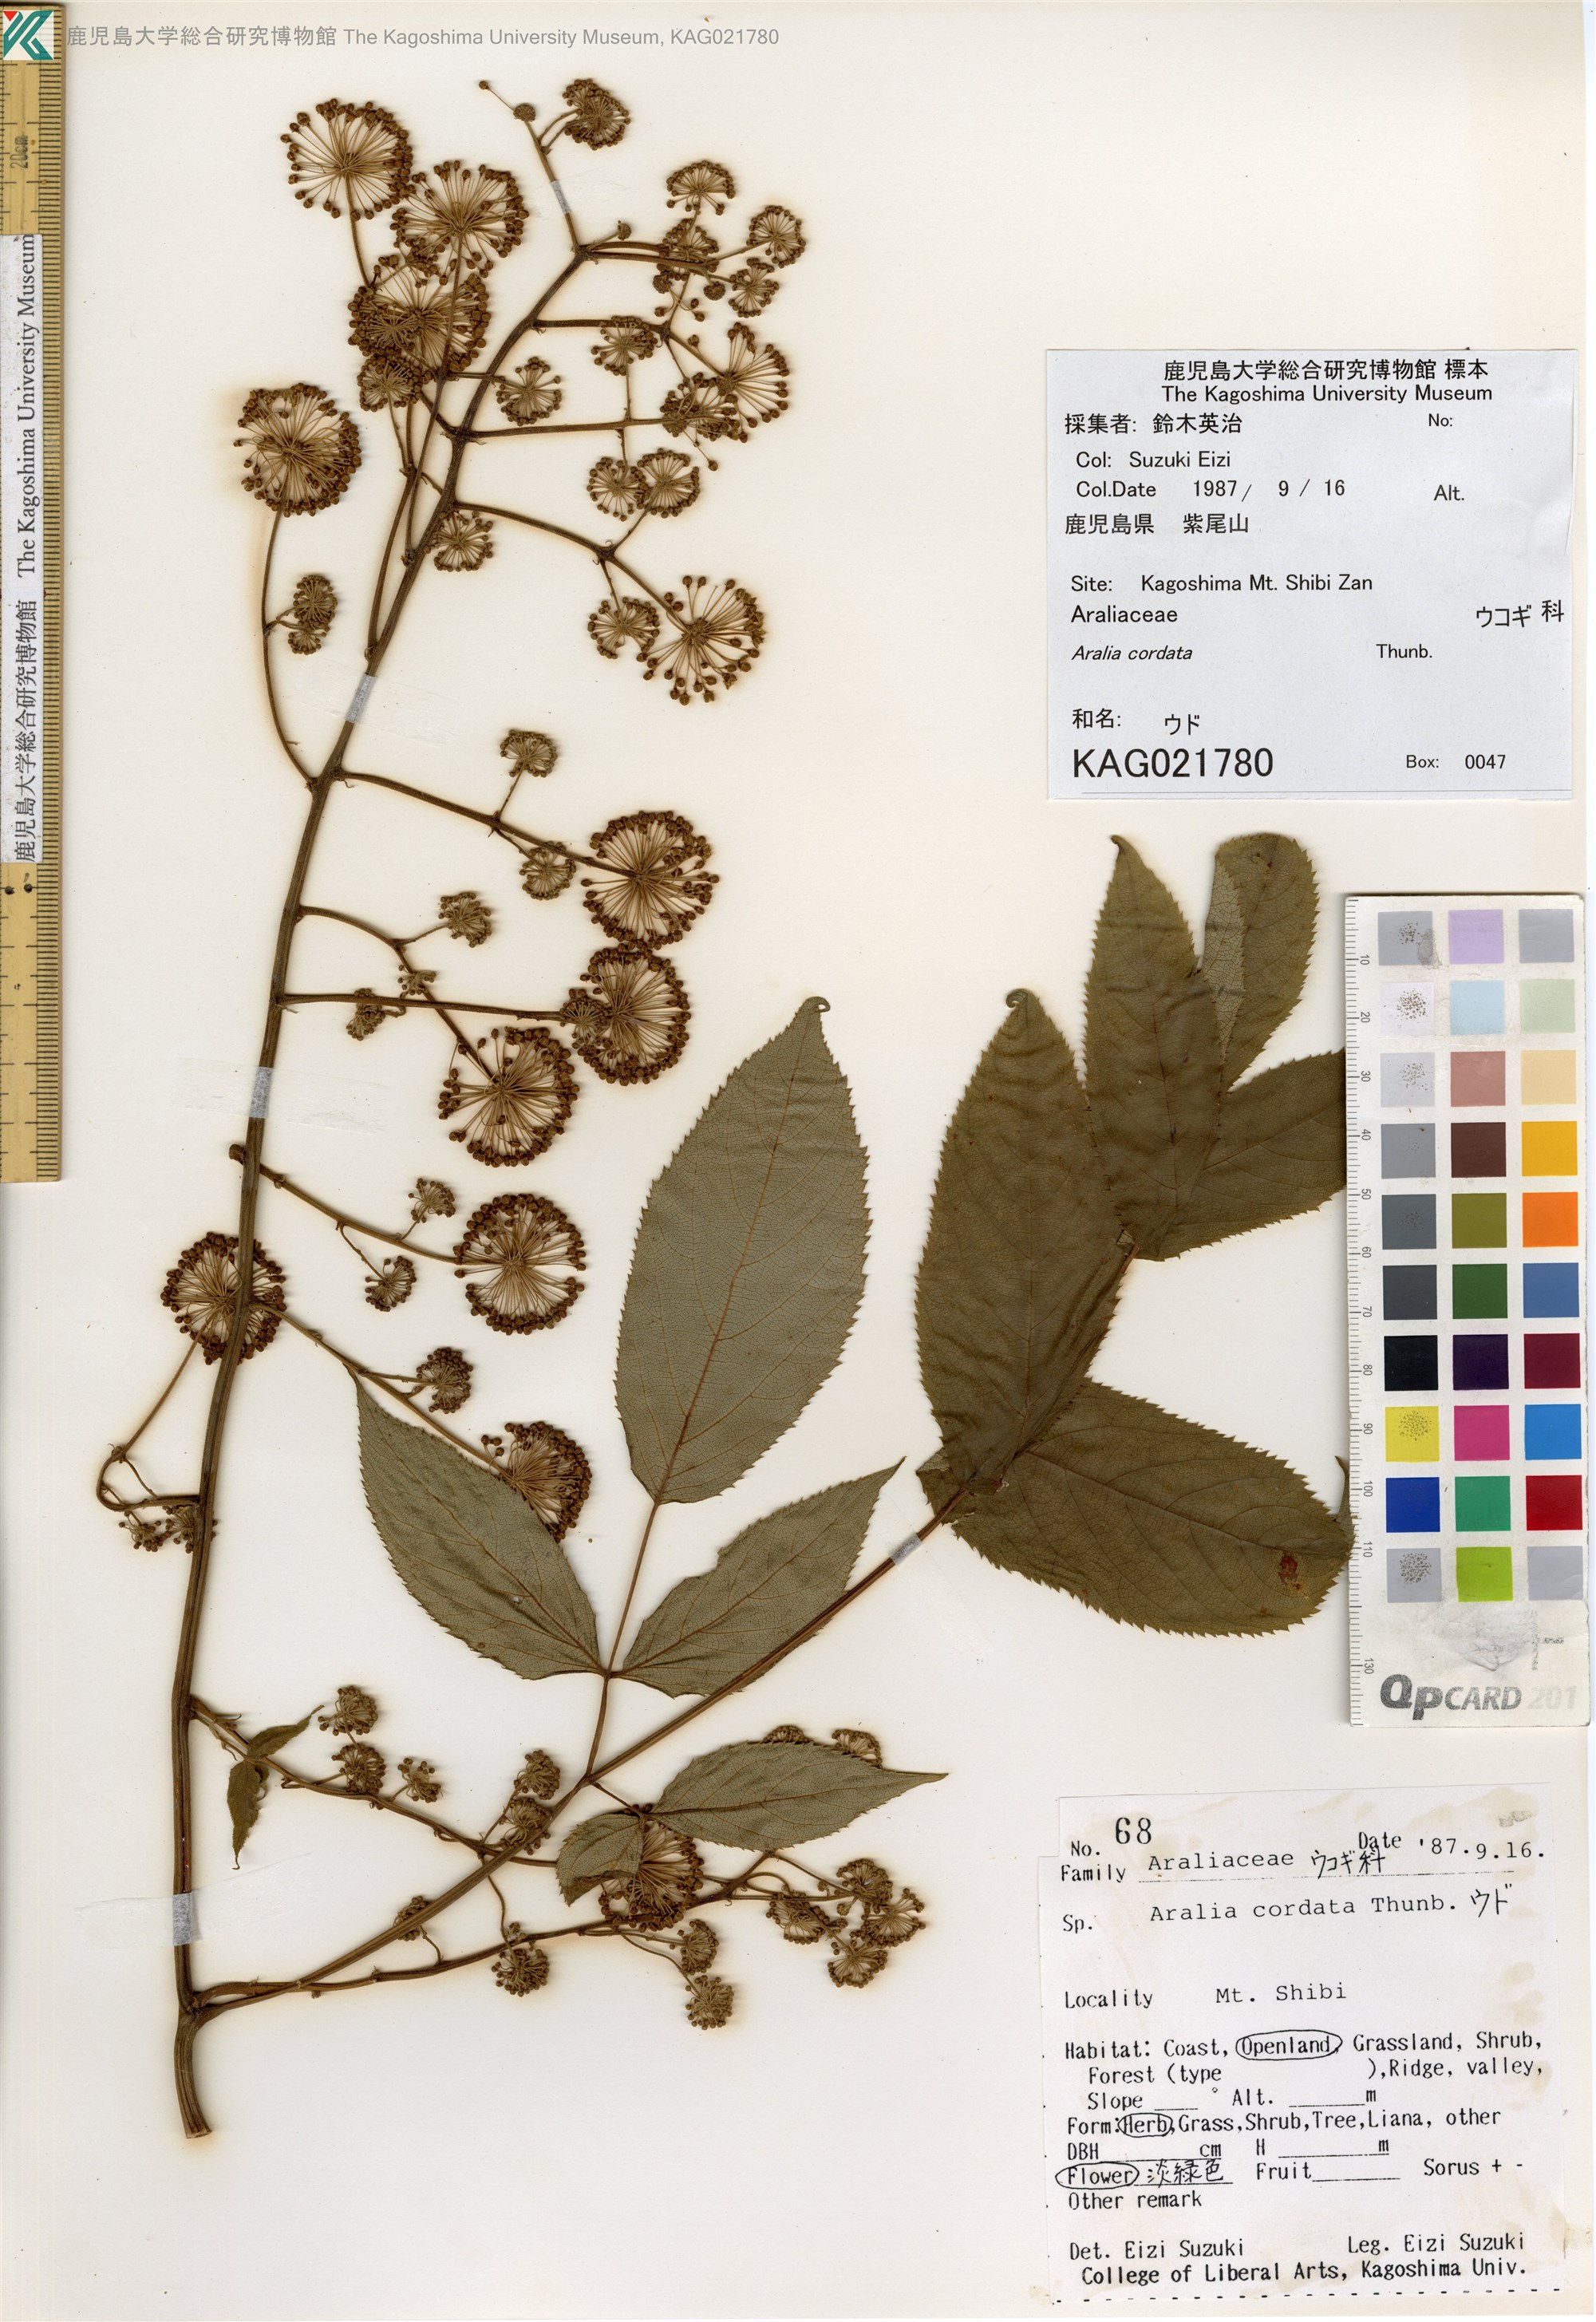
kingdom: Plantae
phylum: Tracheophyta
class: Magnoliopsida
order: Apiales
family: Araliaceae
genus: Aralia
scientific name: Aralia cordata
